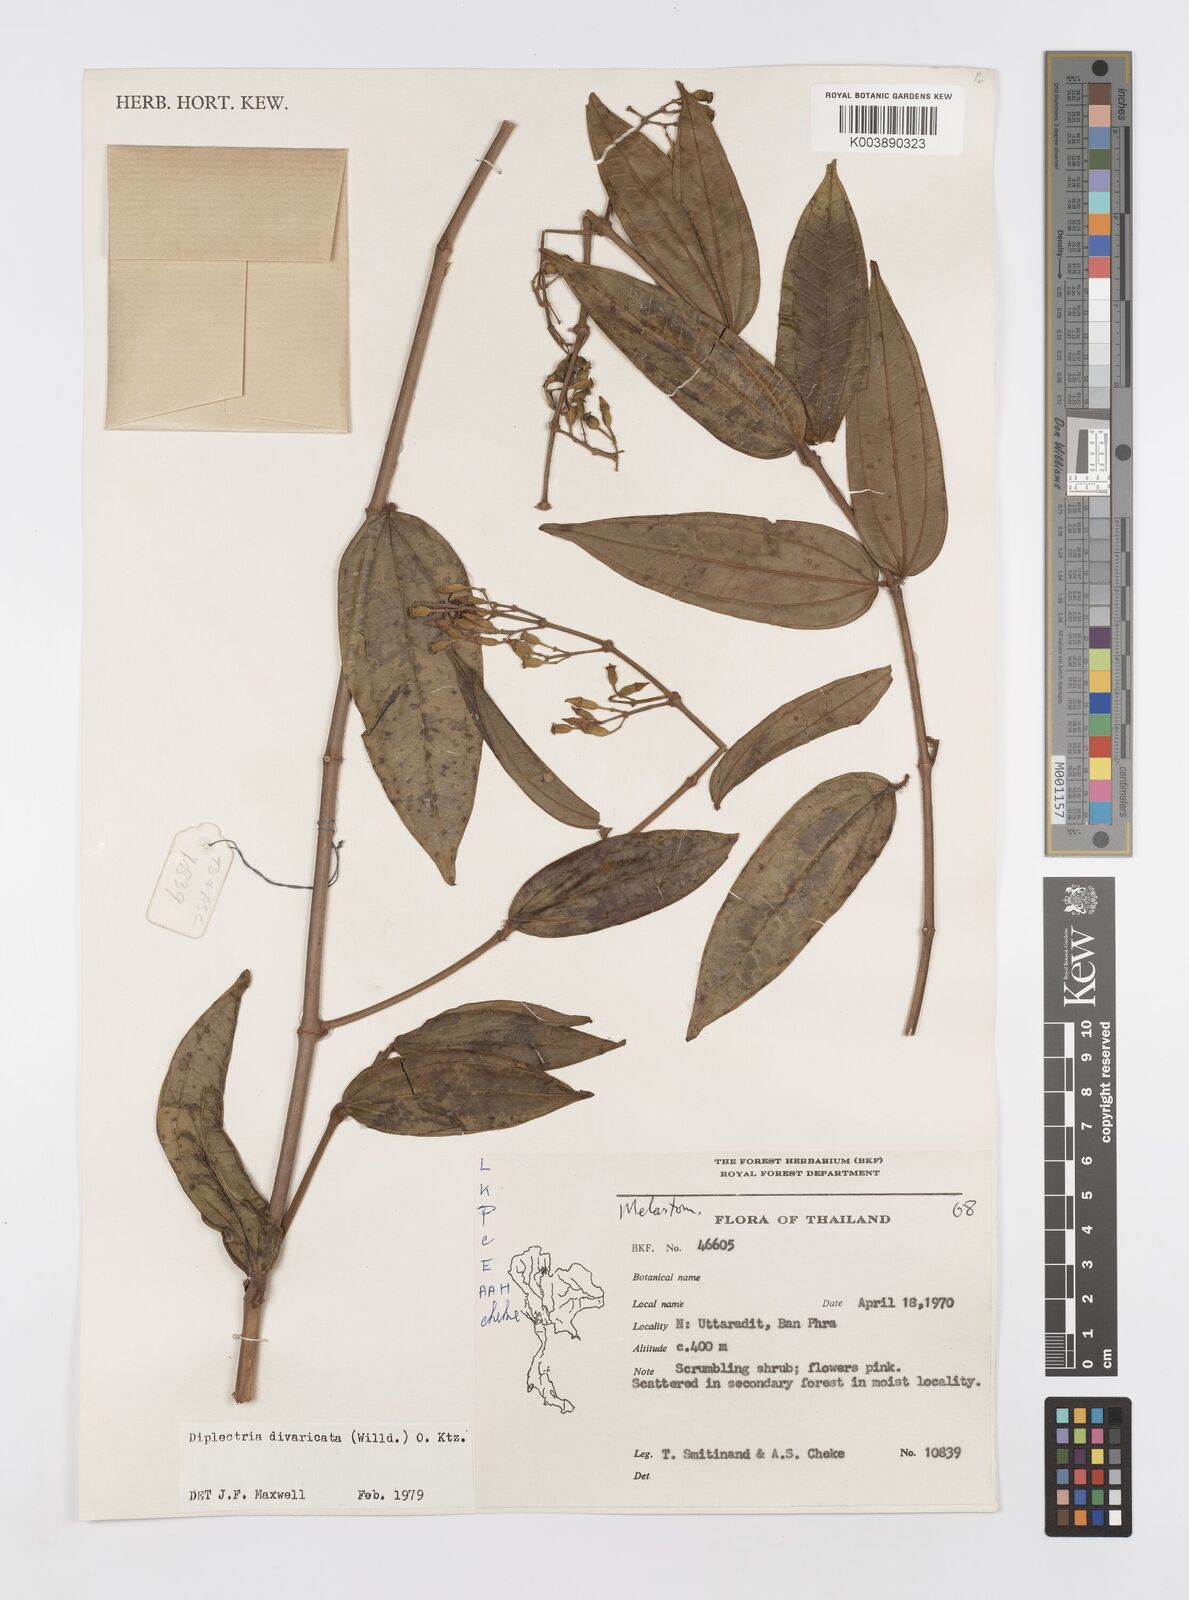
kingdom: Plantae
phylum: Tracheophyta
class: Magnoliopsida
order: Myrtales
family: Melastomataceae
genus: Diplectria
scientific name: Diplectria divaricata
